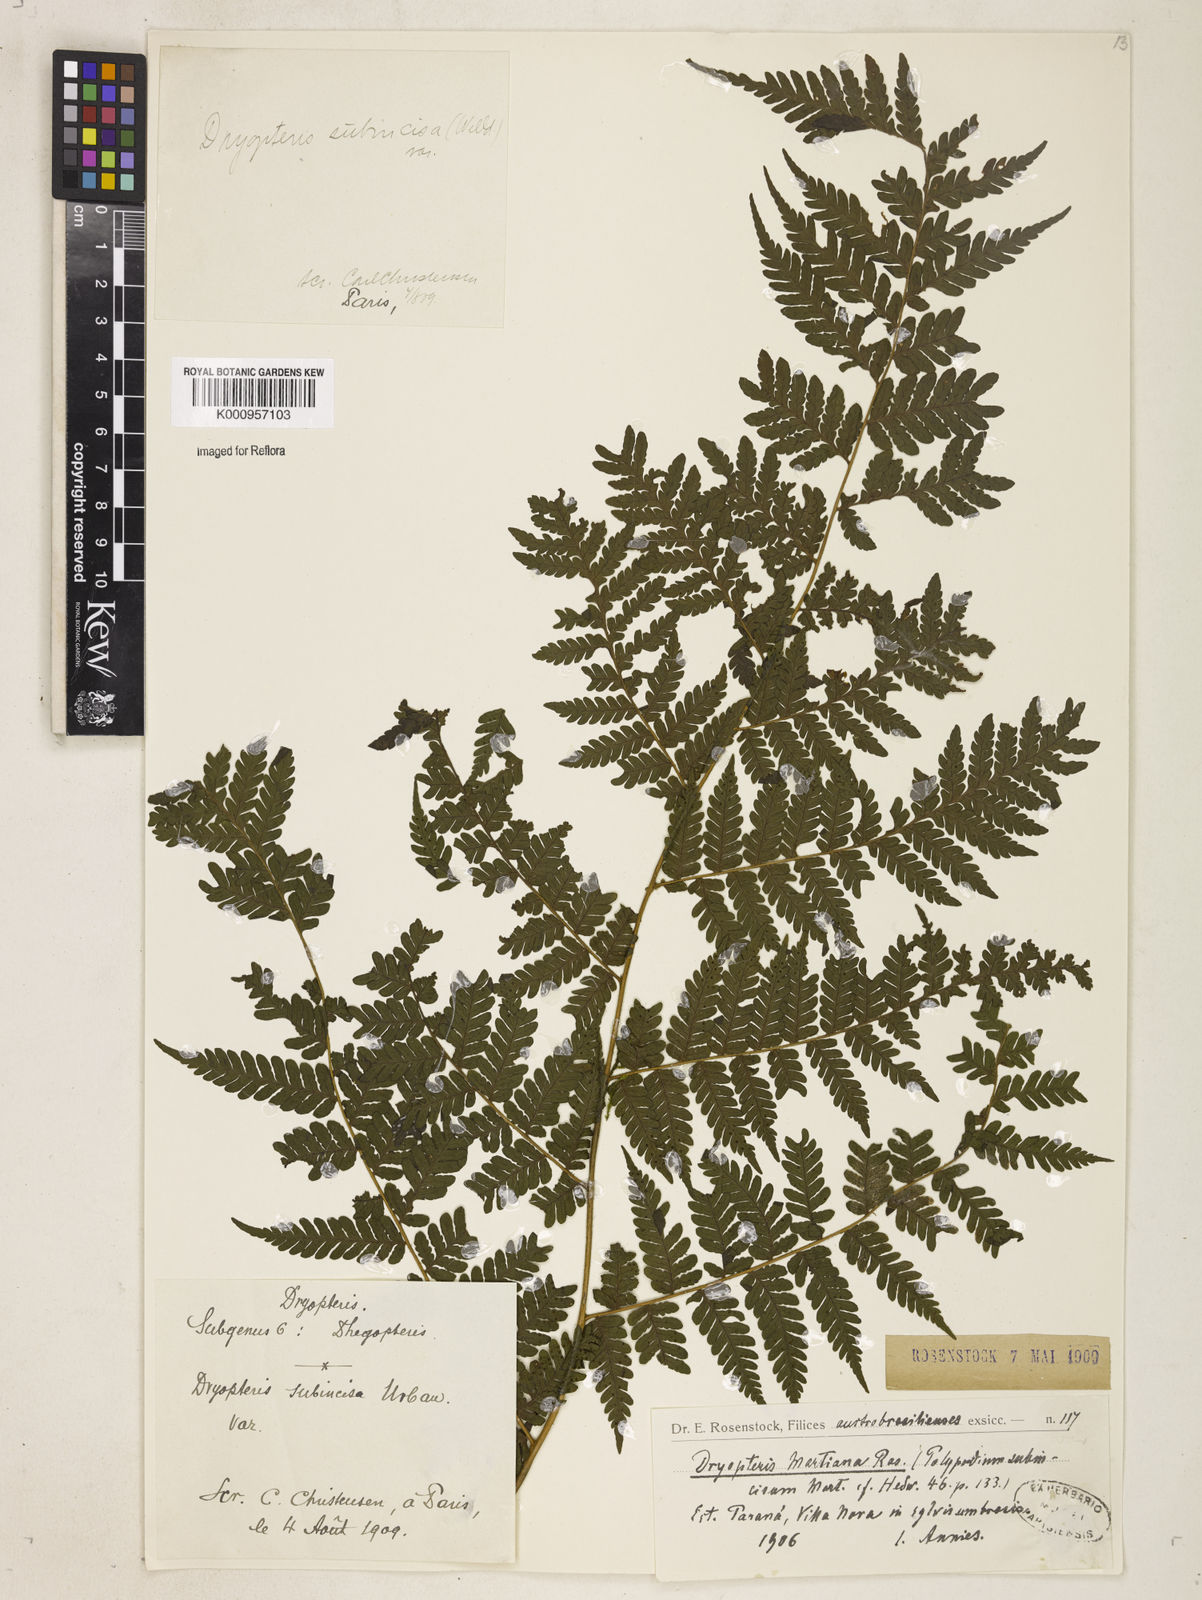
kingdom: Plantae
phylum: Tracheophyta
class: Polypodiopsida
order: Polypodiales
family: Dryopteridaceae
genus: Megalastrum
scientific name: Megalastrum subincisum
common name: Jagleaf junglefern
